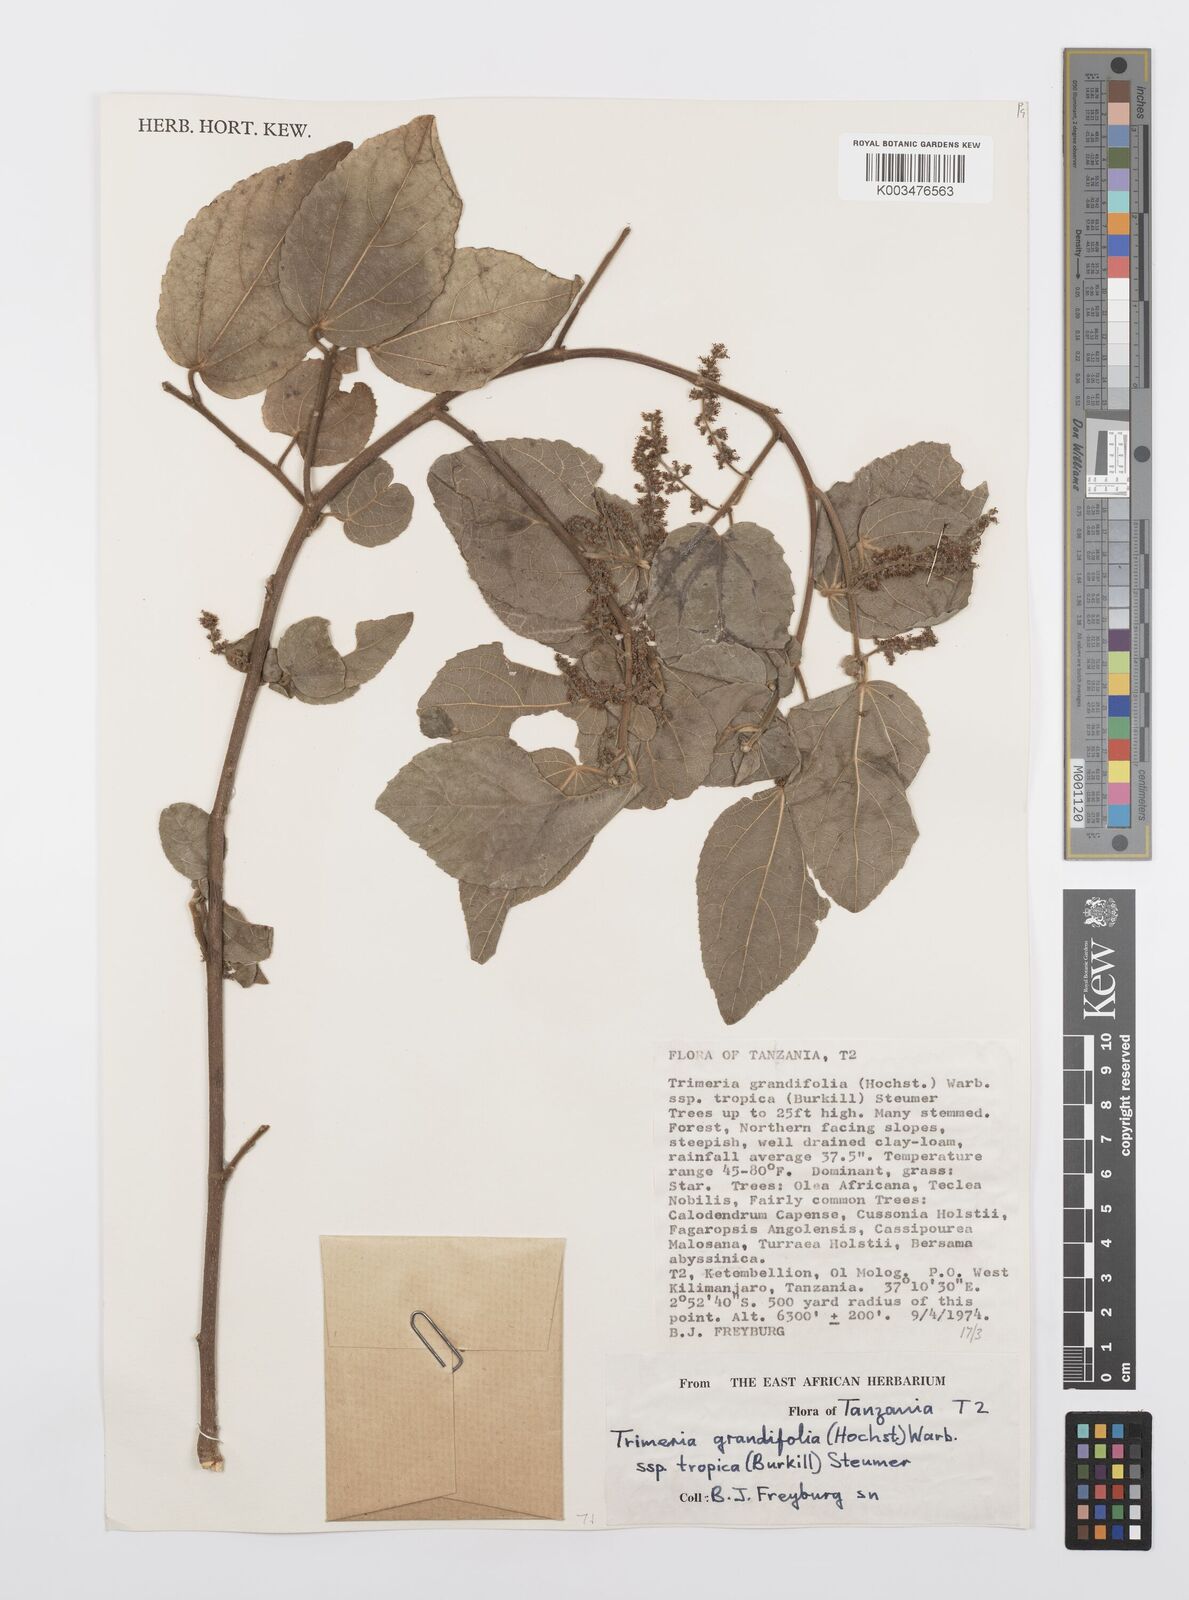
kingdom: Plantae
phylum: Tracheophyta
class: Magnoliopsida
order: Malpighiales
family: Salicaceae
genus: Trimeria
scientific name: Trimeria grandifolia
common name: Wild mulberry
